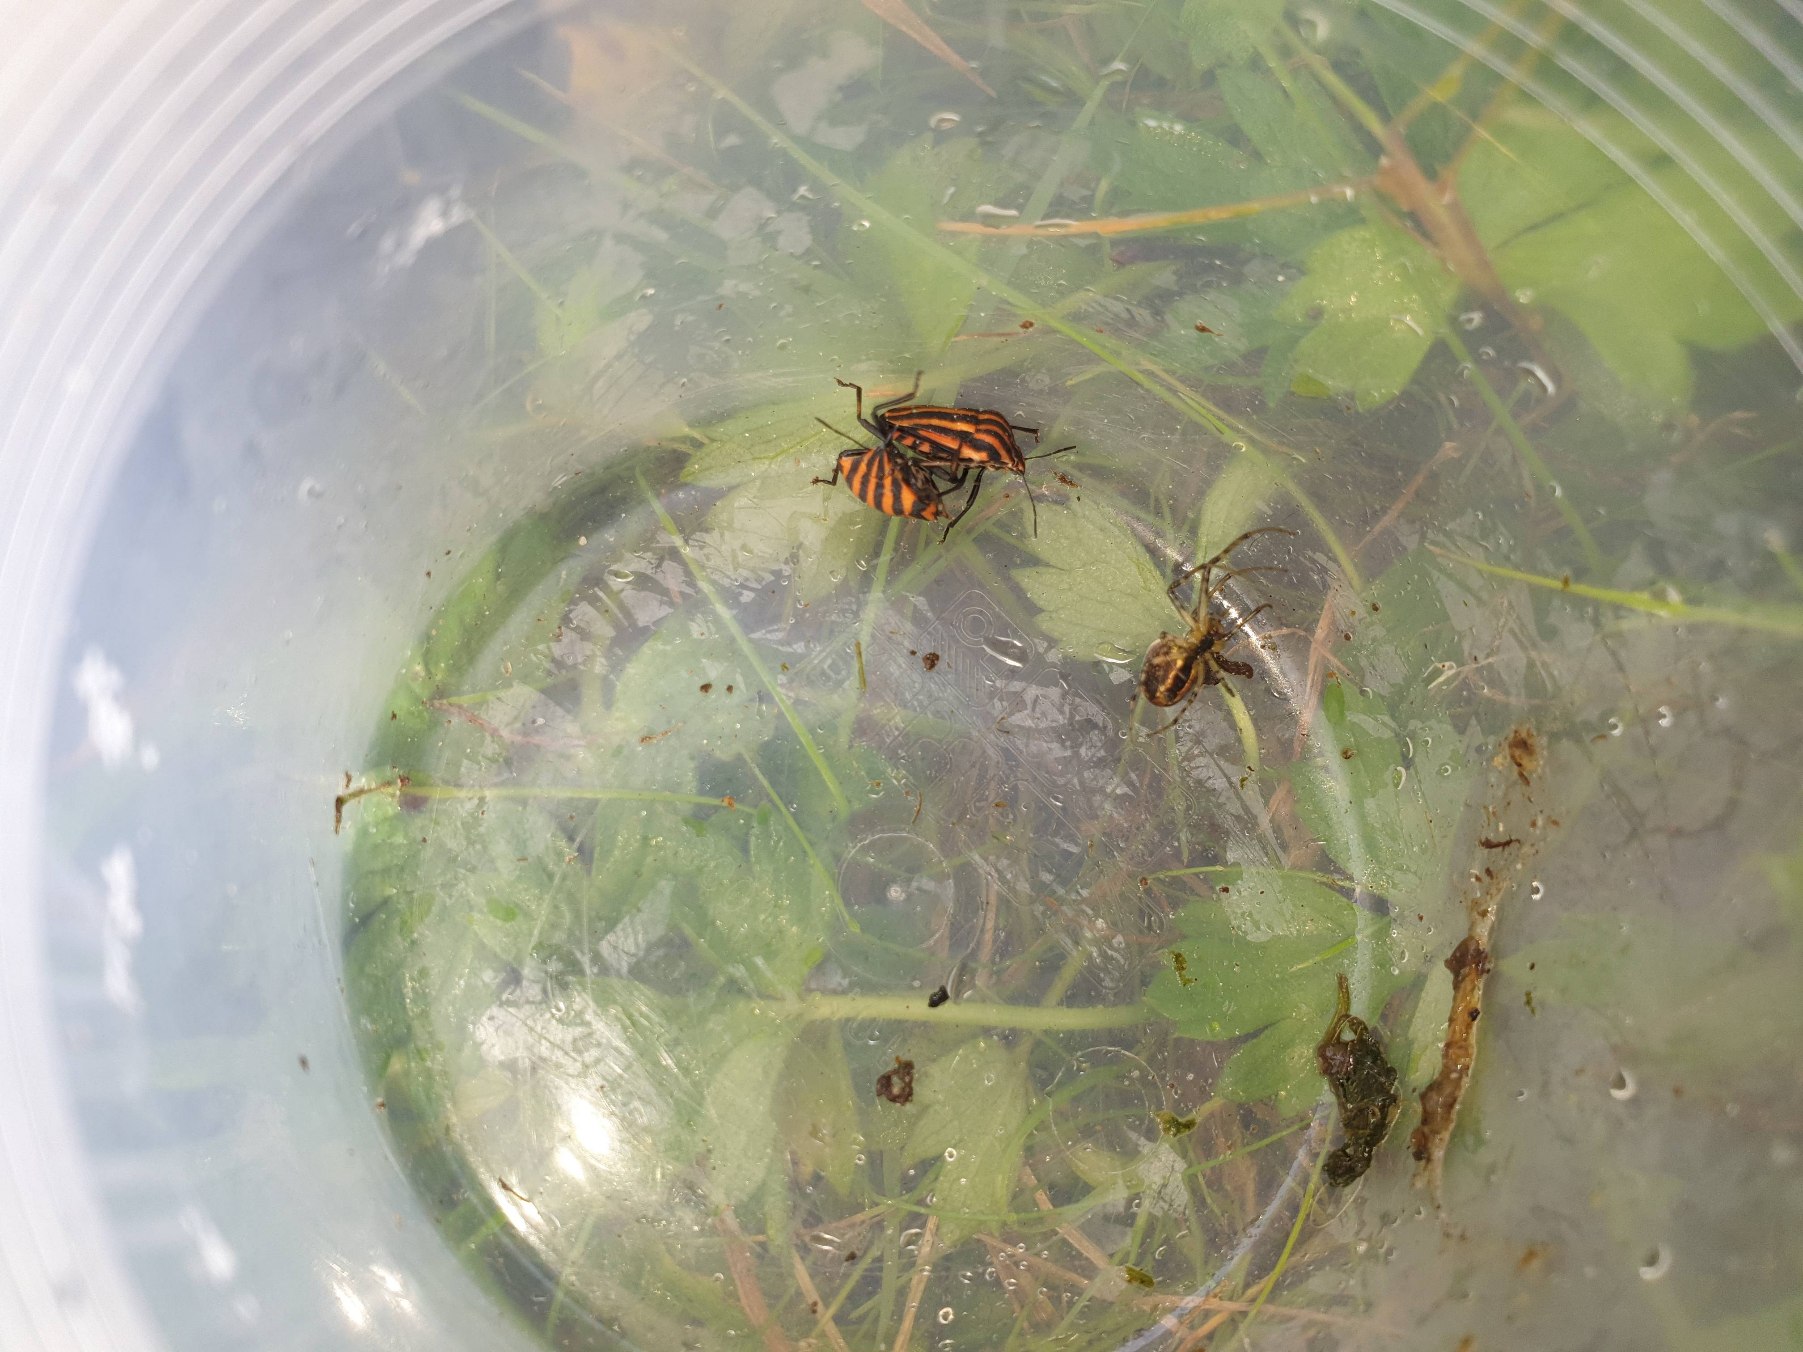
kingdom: Animalia
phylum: Arthropoda
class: Insecta
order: Hemiptera
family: Pentatomidae
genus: Graphosoma
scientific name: Graphosoma italicum
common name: Stribetæge
